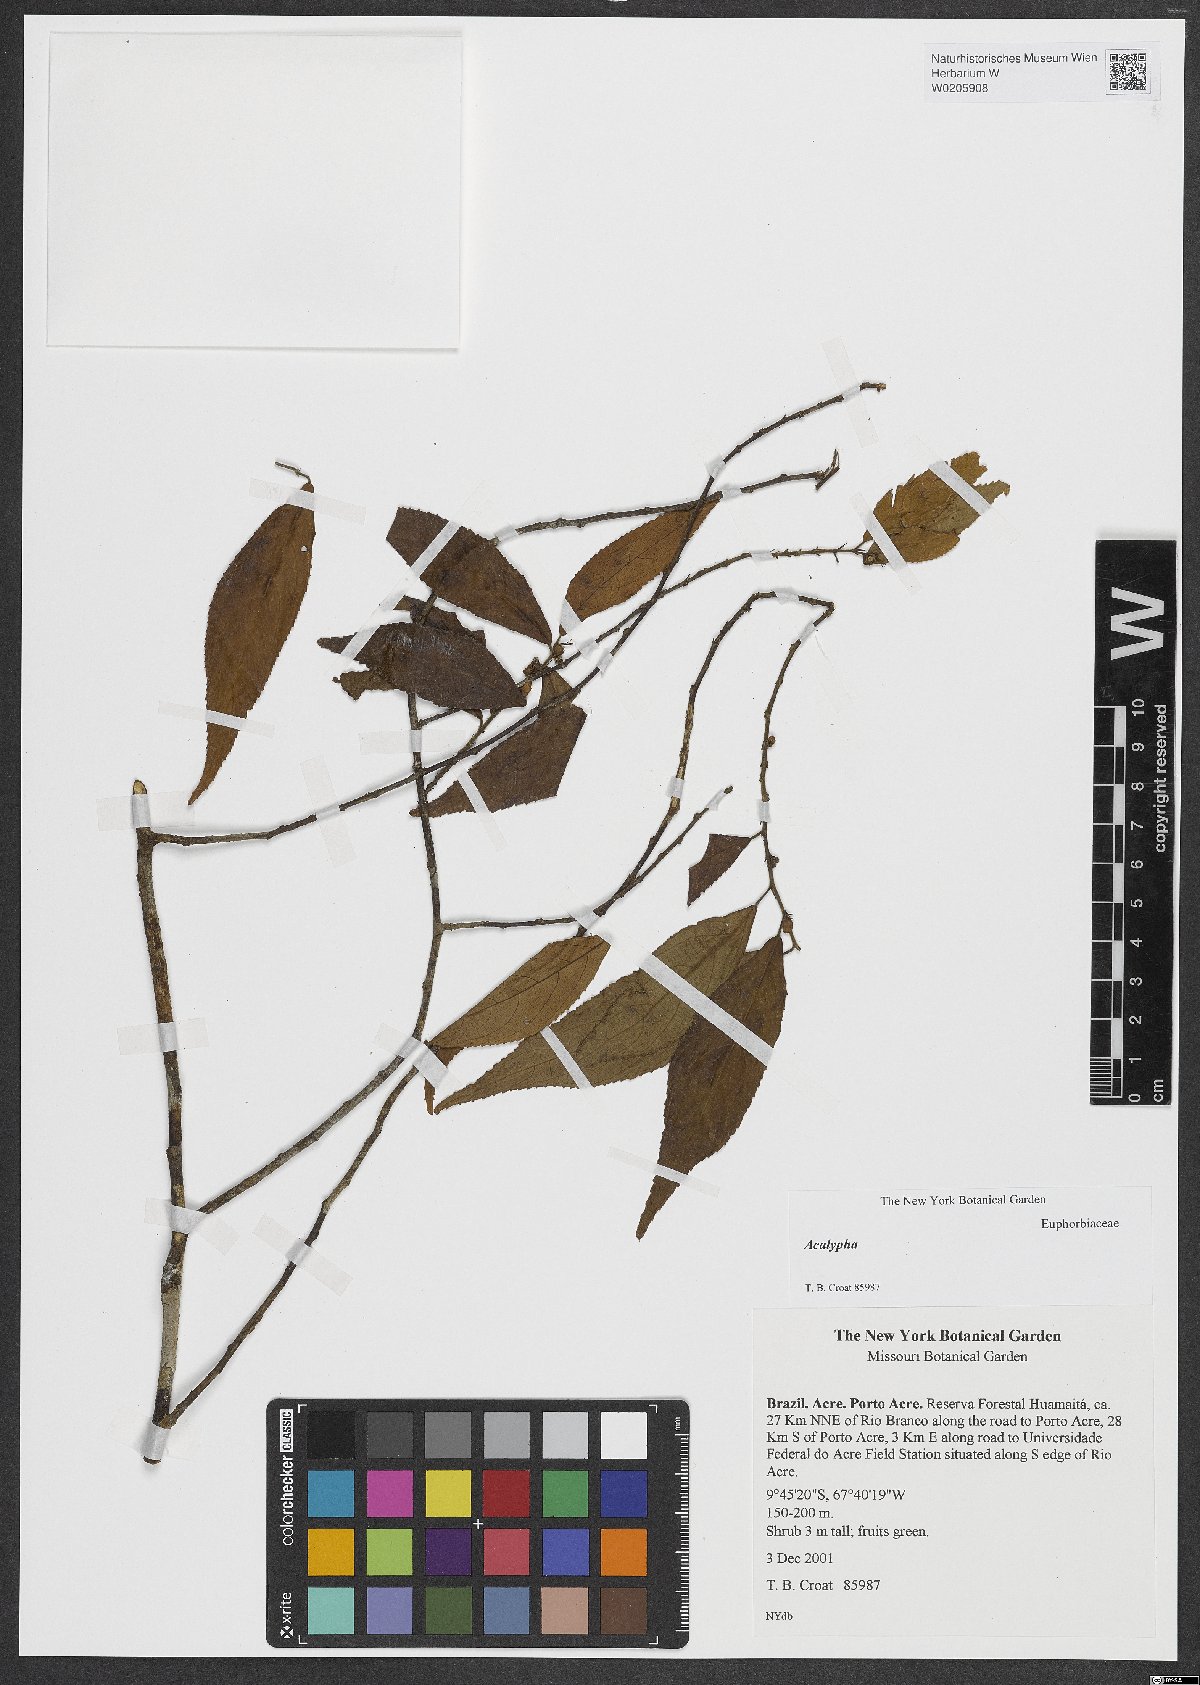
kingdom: Plantae
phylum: Tracheophyta
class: Magnoliopsida
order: Malpighiales
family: Euphorbiaceae
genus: Acalypha
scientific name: Acalypha
